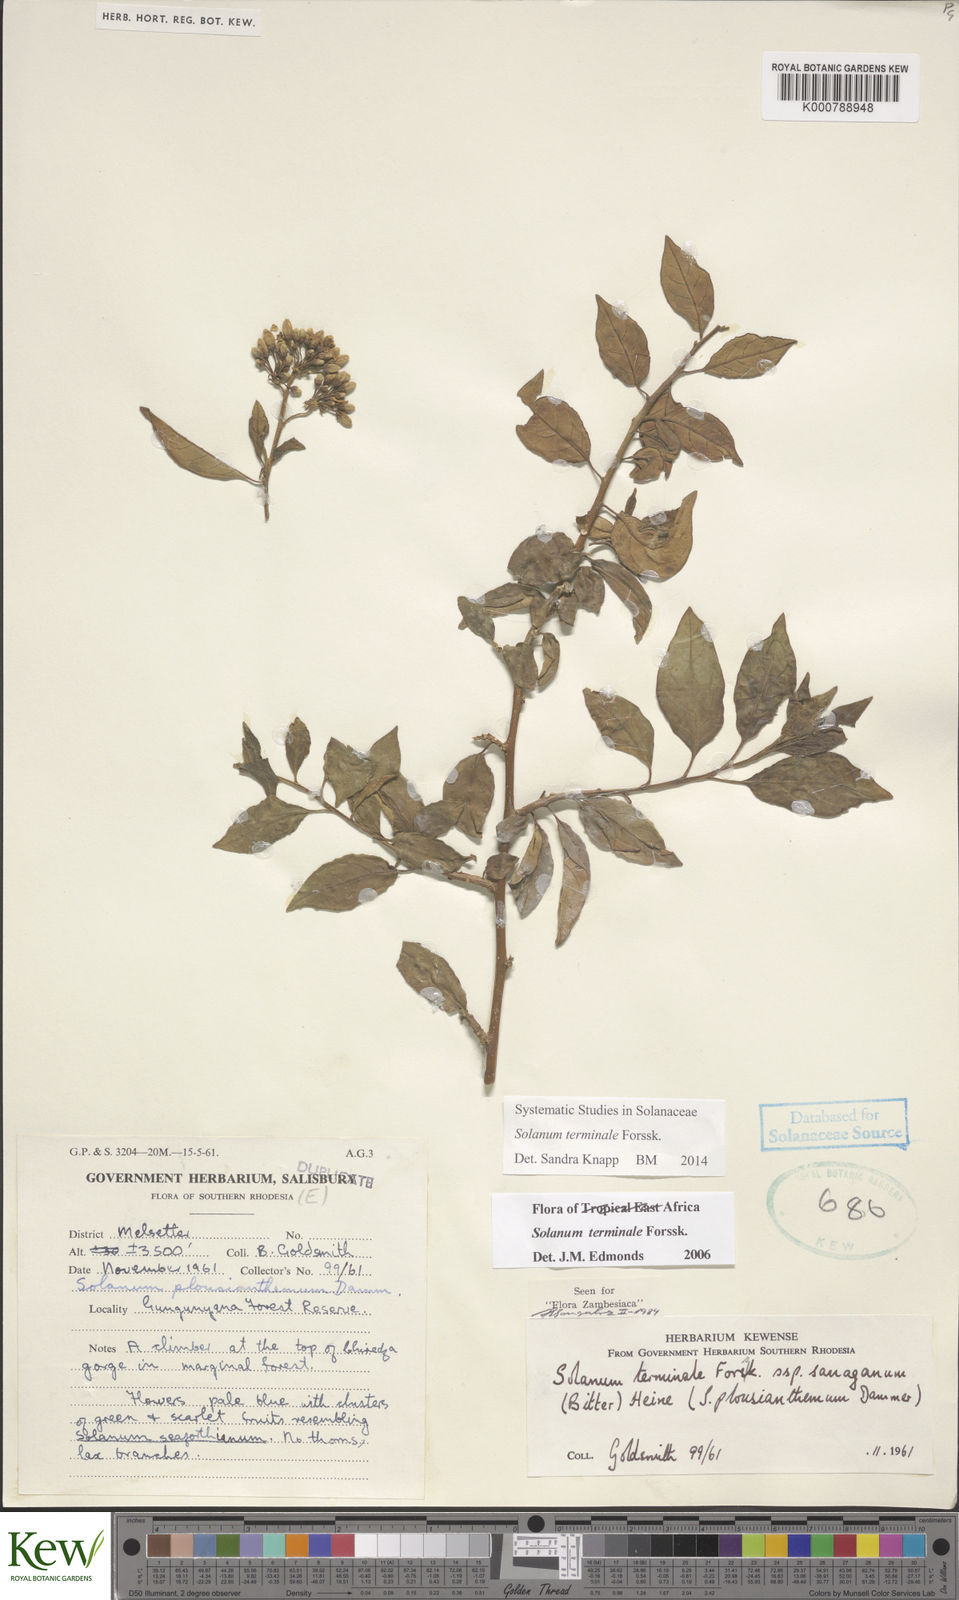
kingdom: Plantae
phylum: Tracheophyta
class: Magnoliopsida
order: Solanales
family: Solanaceae
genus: Solanum
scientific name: Solanum terminale
